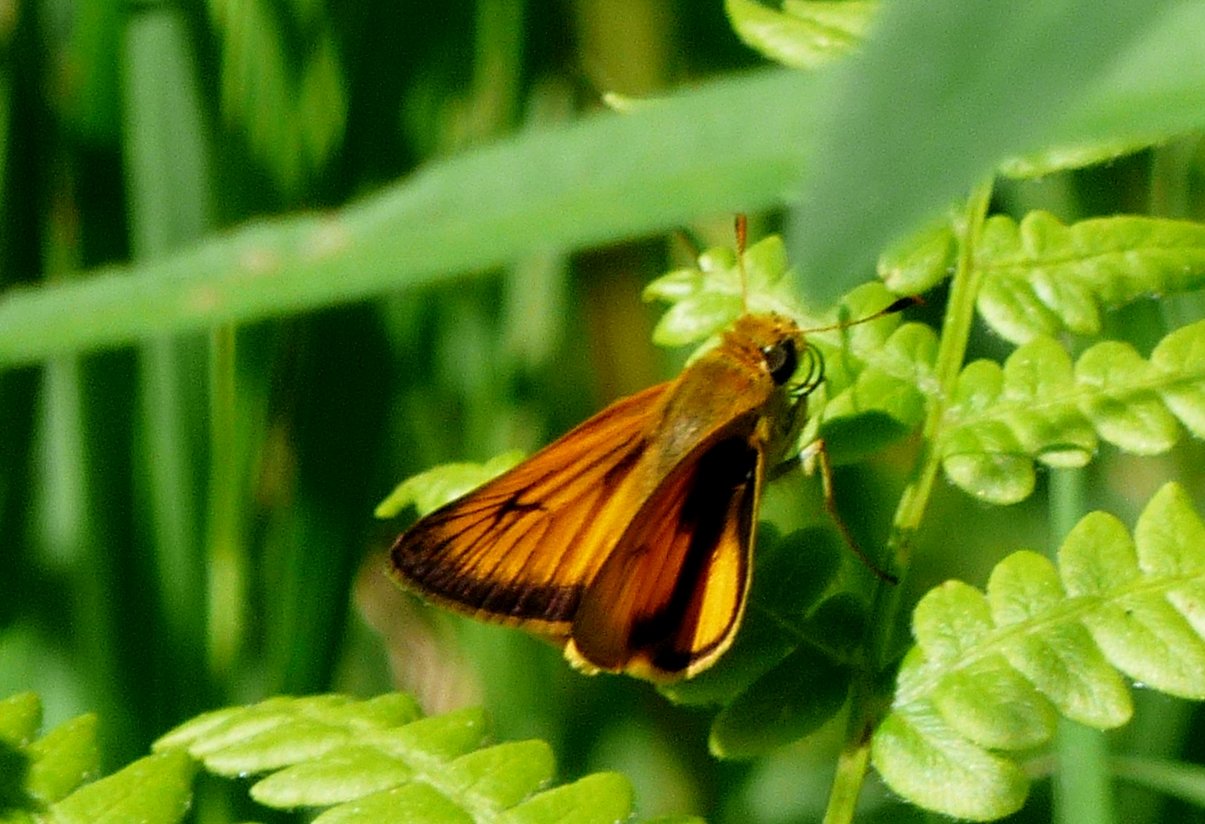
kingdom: Animalia
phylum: Arthropoda
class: Insecta
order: Lepidoptera
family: Hesperiidae
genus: Atrytone
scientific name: Atrytone delaware
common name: Delaware Skipper
